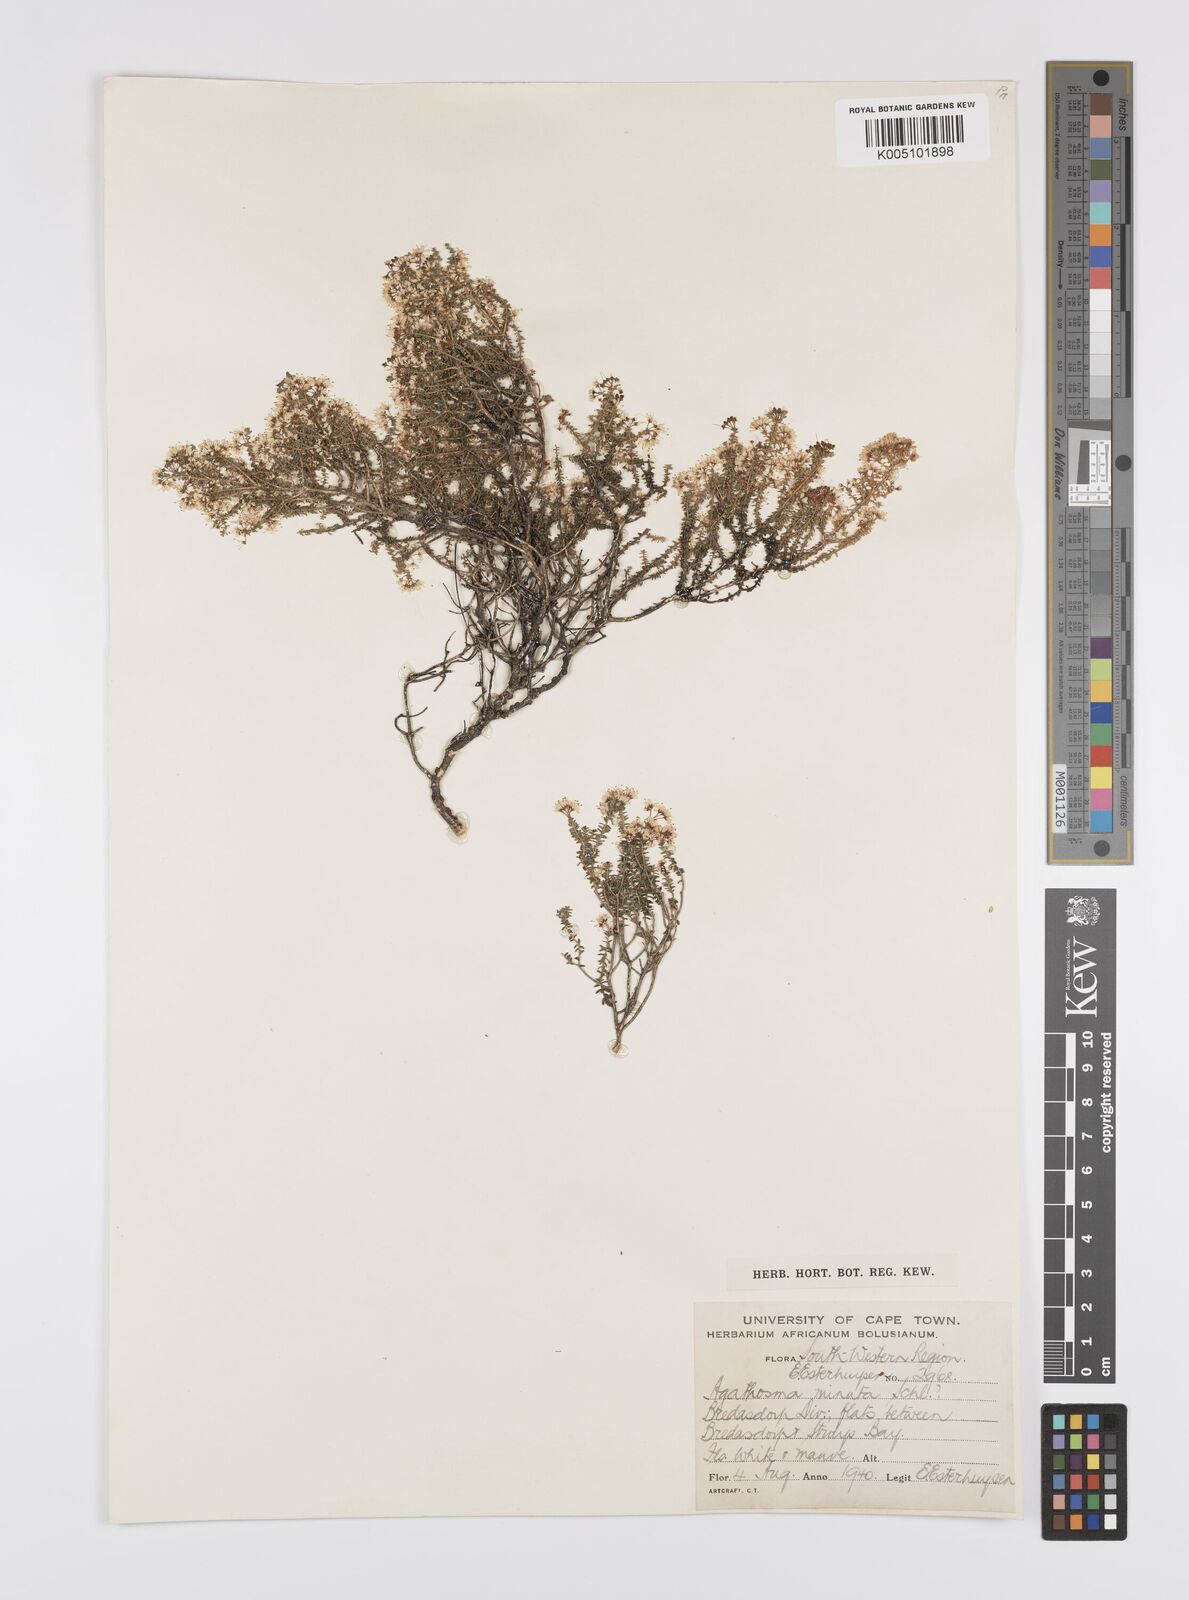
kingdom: Plantae
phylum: Tracheophyta
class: Magnoliopsida
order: Sapindales
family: Rutaceae
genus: Agathosma
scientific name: Agathosma minuta
